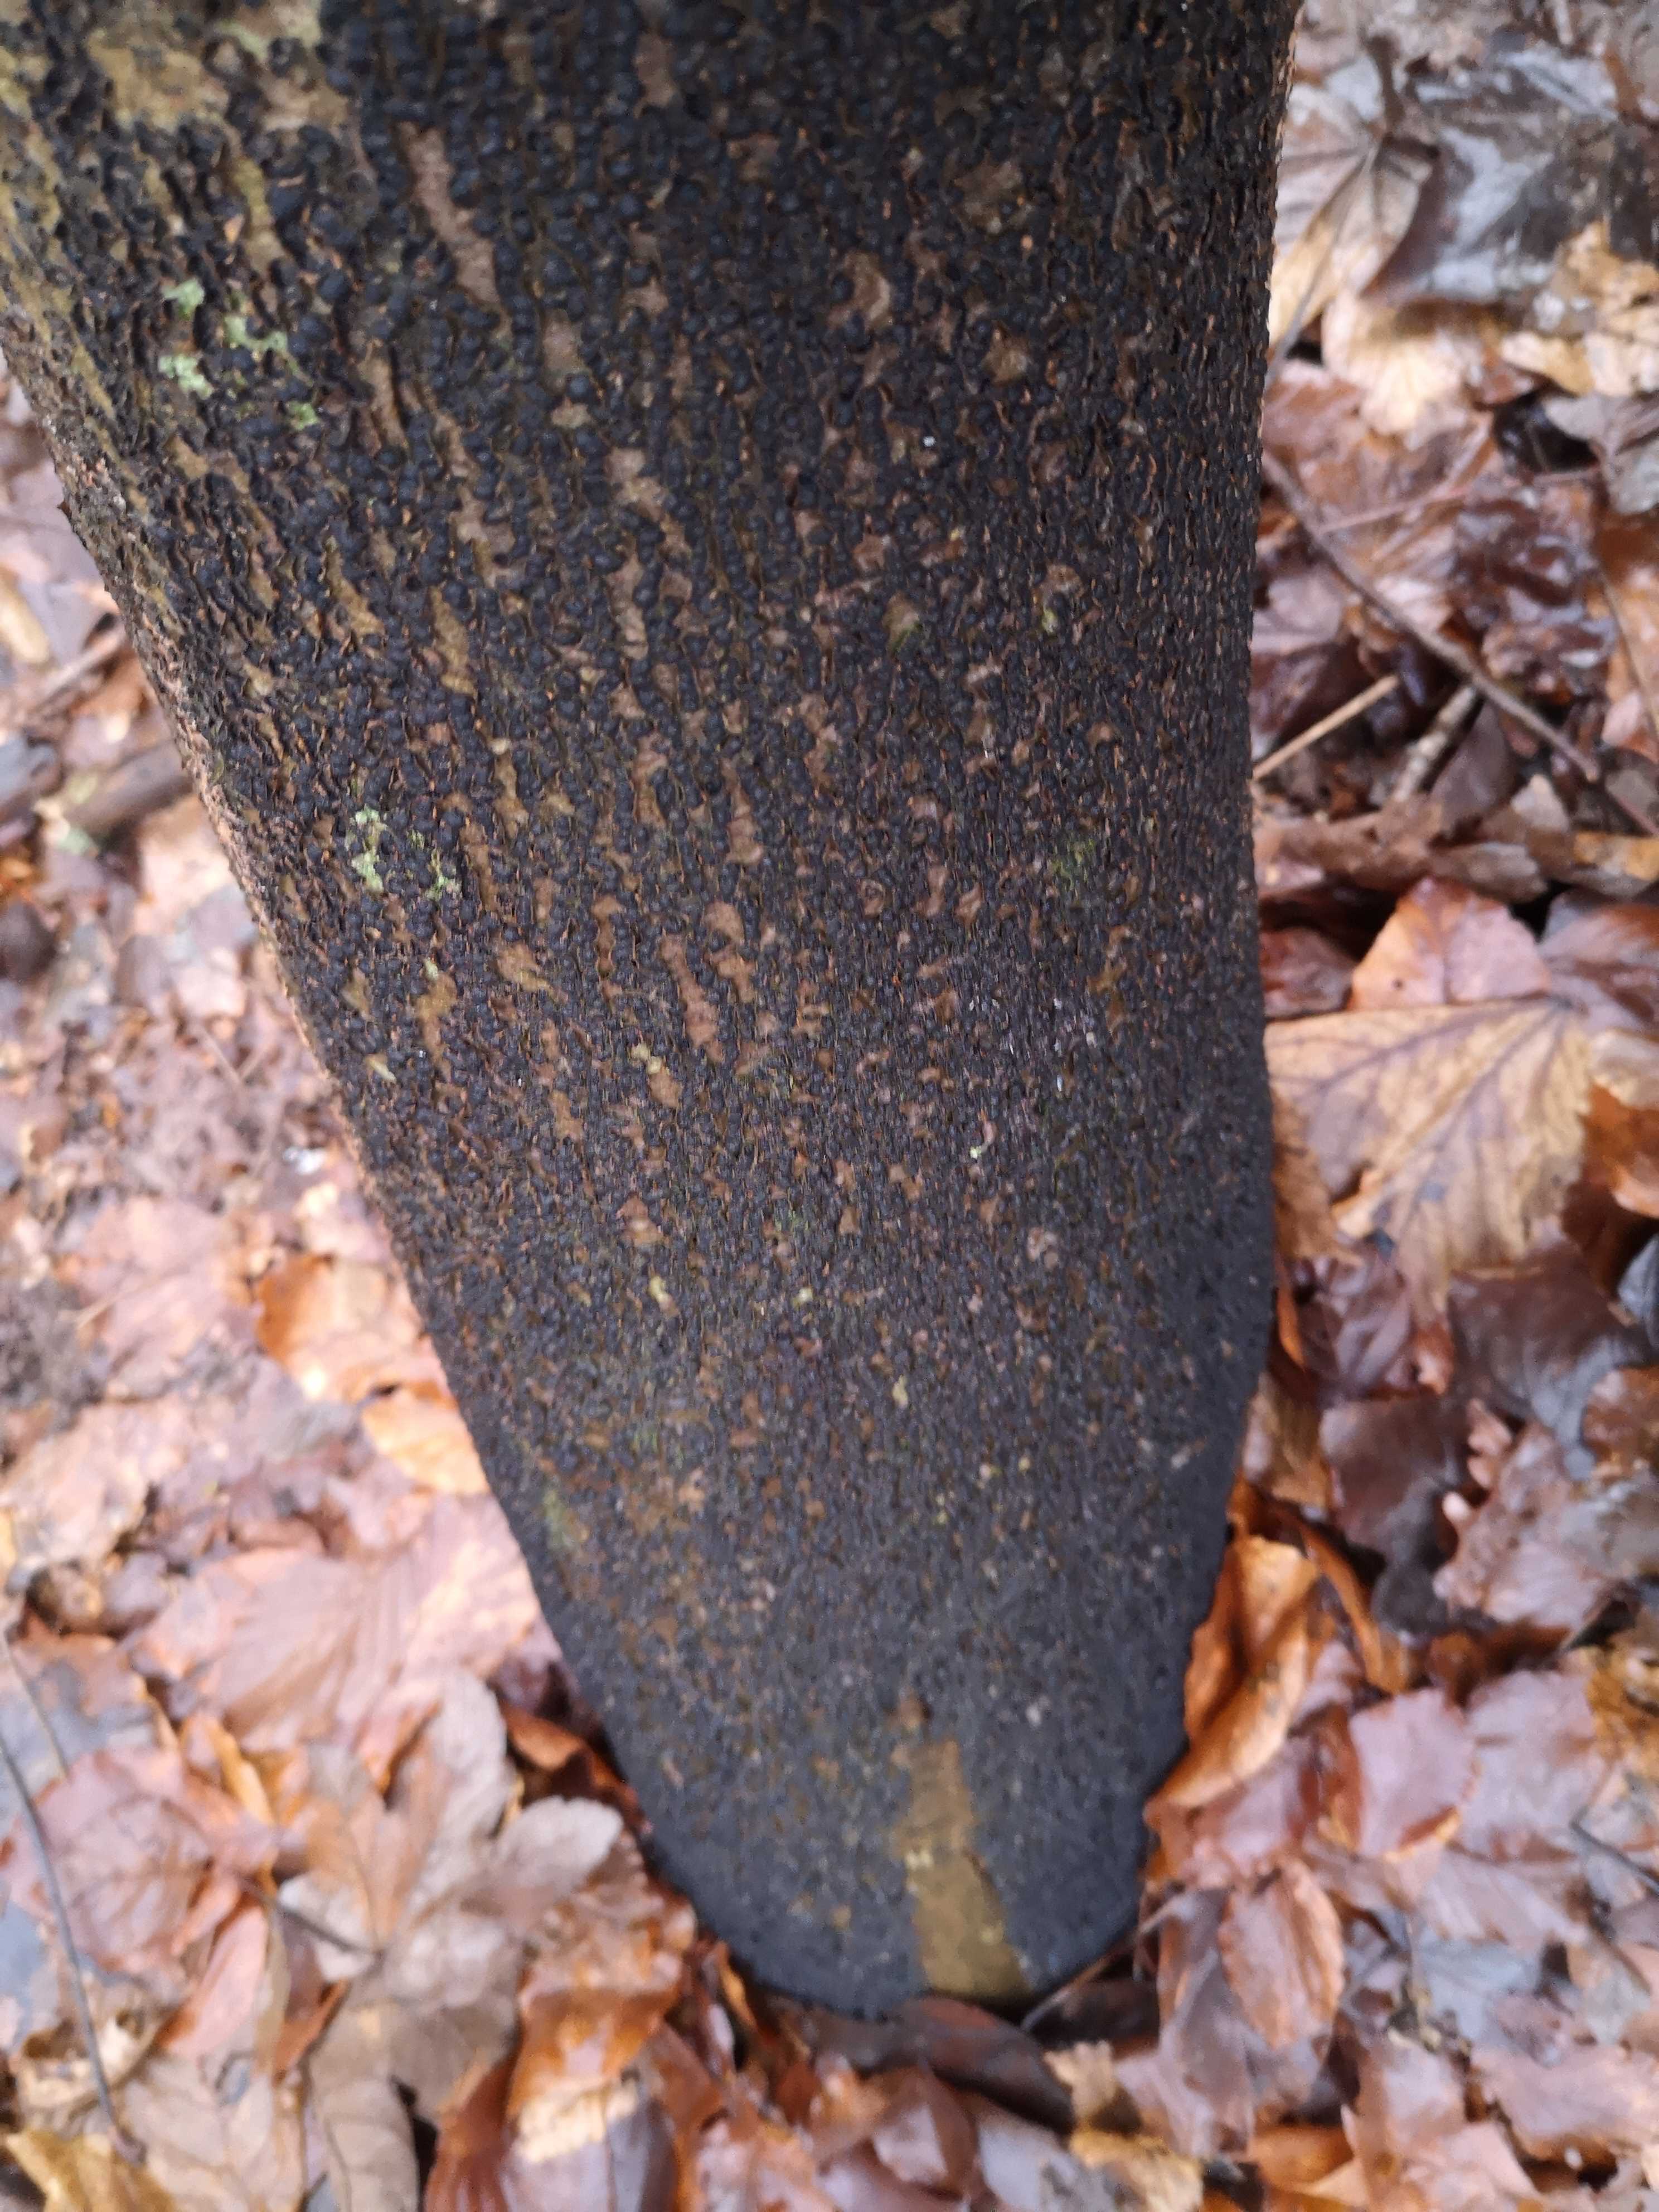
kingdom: Fungi
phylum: Ascomycota
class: Sordariomycetes
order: Xylariales
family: Melogrammataceae
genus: Melogramma
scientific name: Melogramma spiniferum
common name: bøgefod-kulhals
